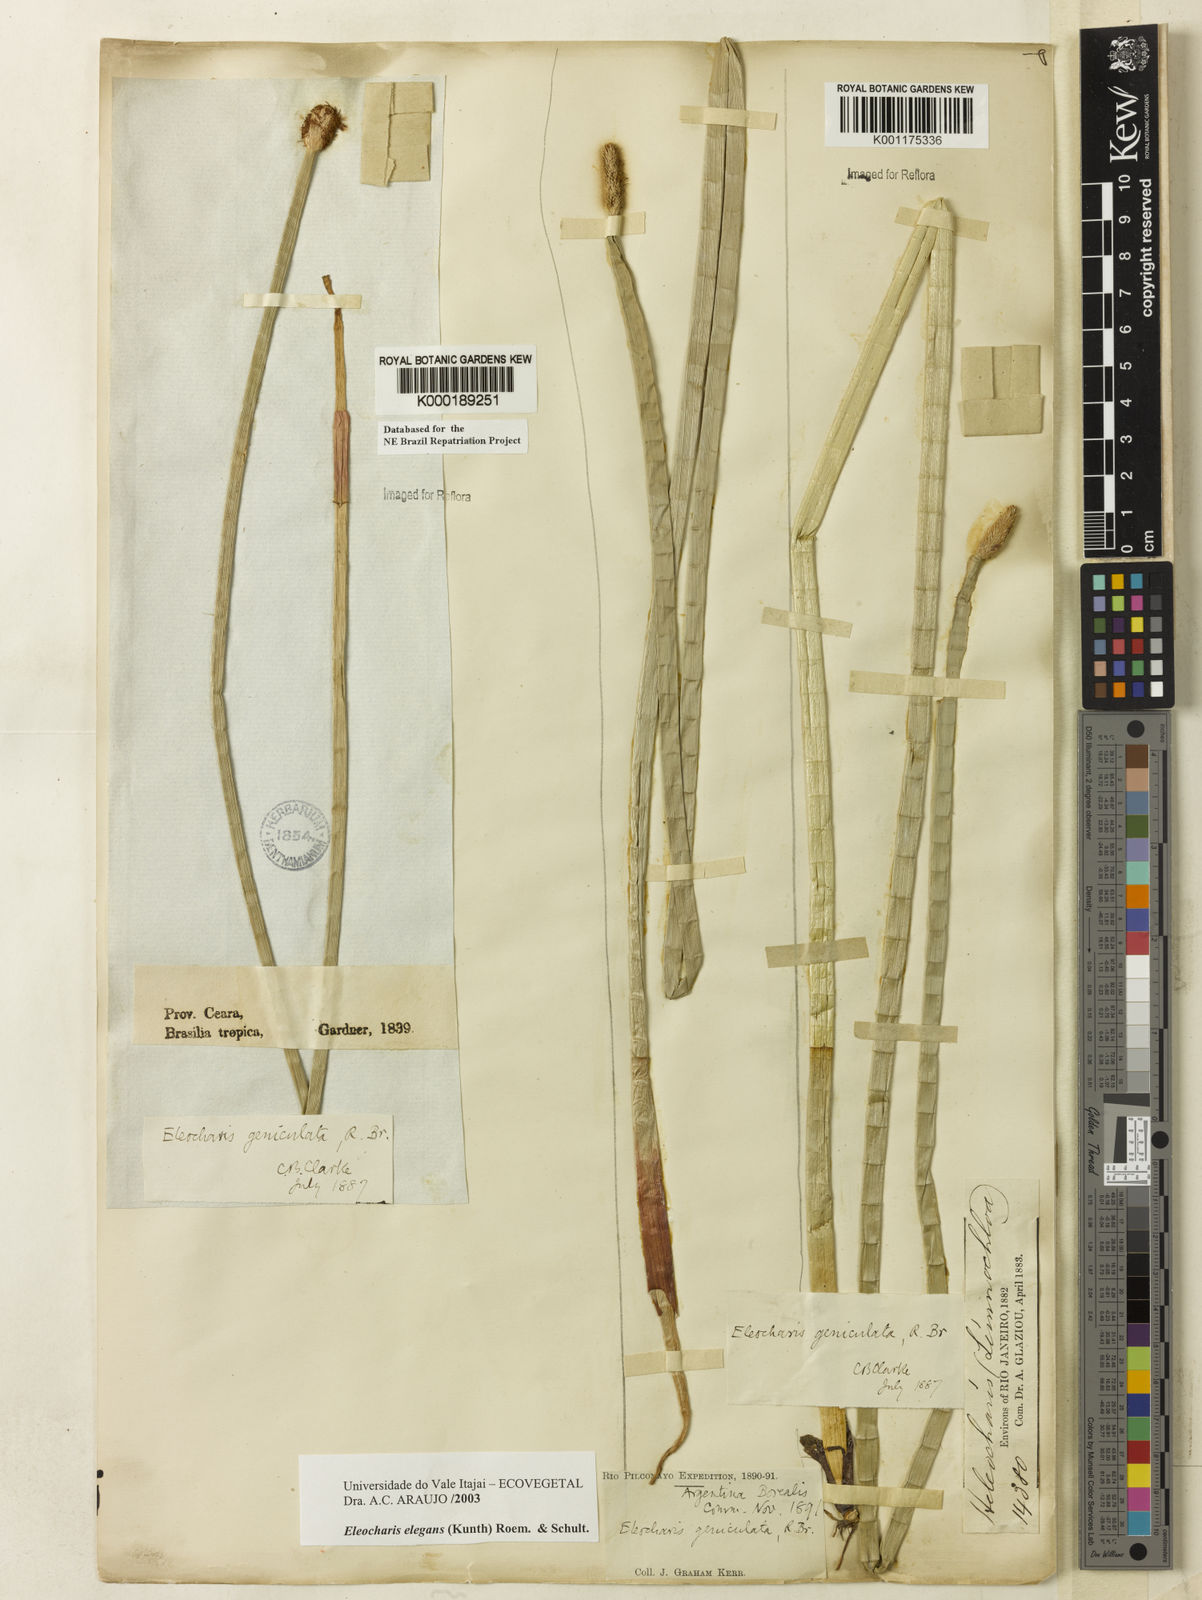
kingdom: Plantae
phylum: Tracheophyta
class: Liliopsida
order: Poales
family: Cyperaceae
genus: Eleocharis
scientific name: Eleocharis elegans
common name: Elegant spike-rush
